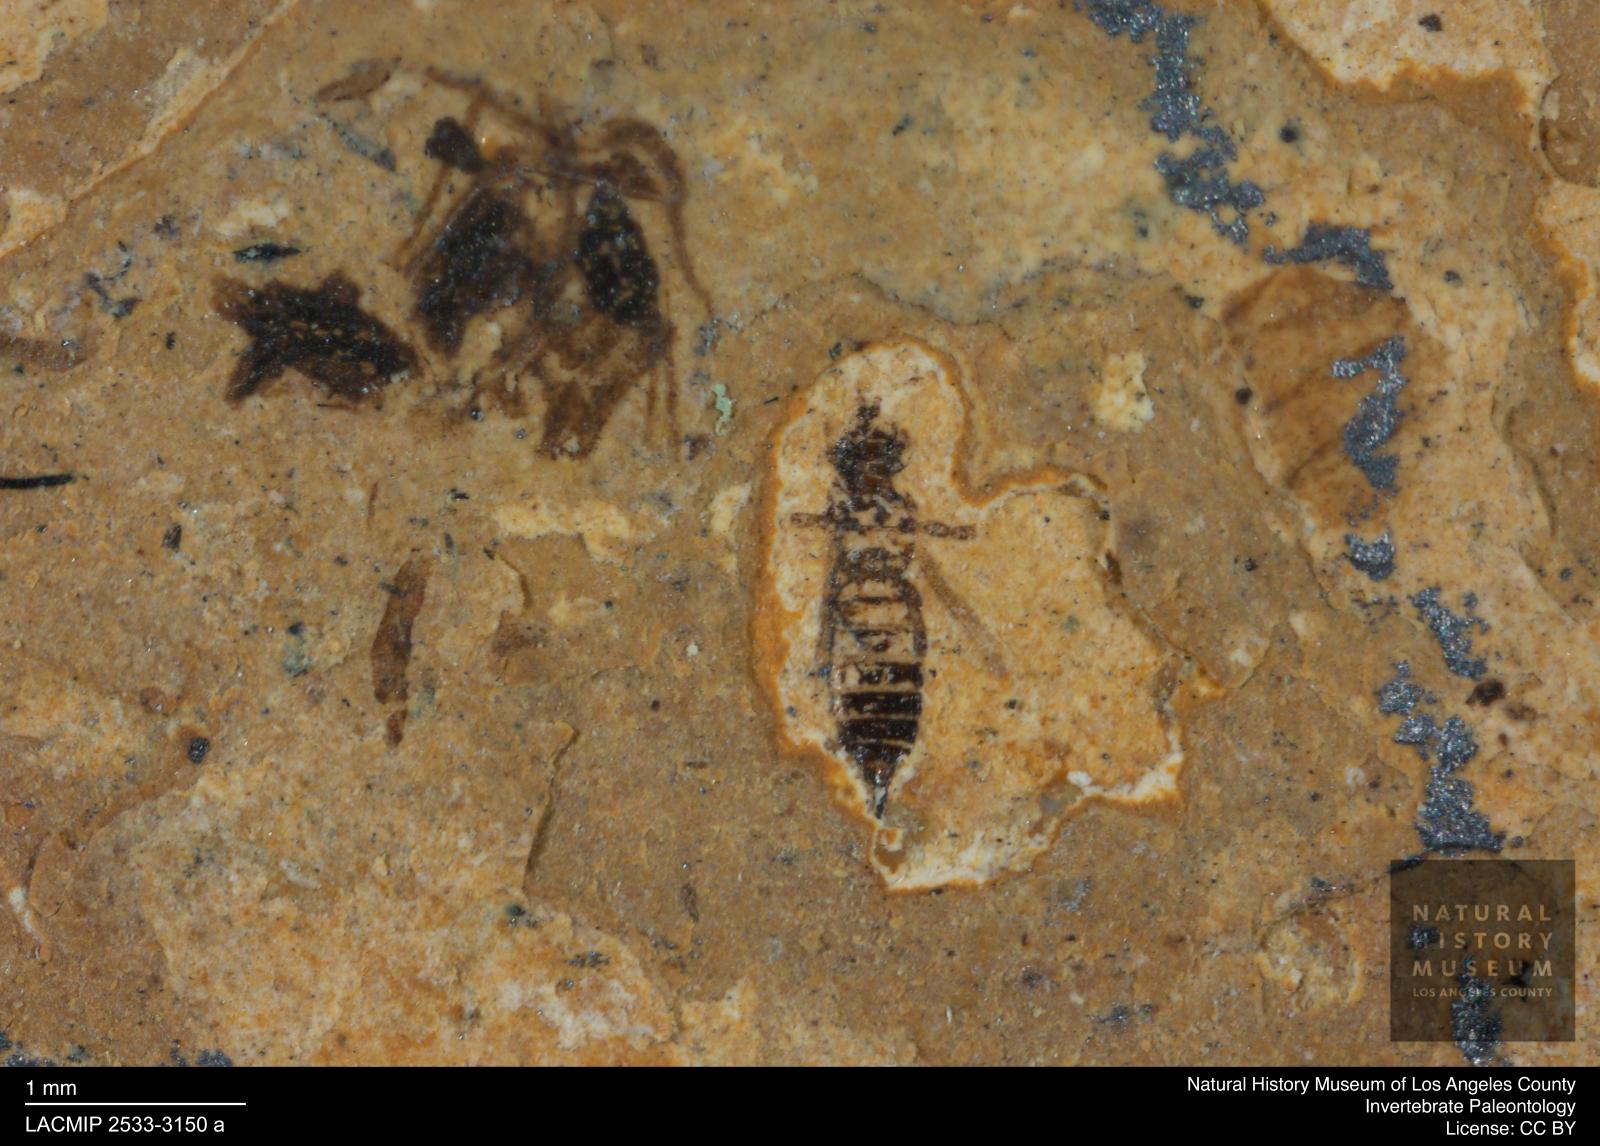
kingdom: Animalia
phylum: Arthropoda
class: Insecta
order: Thysanoptera
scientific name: Thysanoptera
